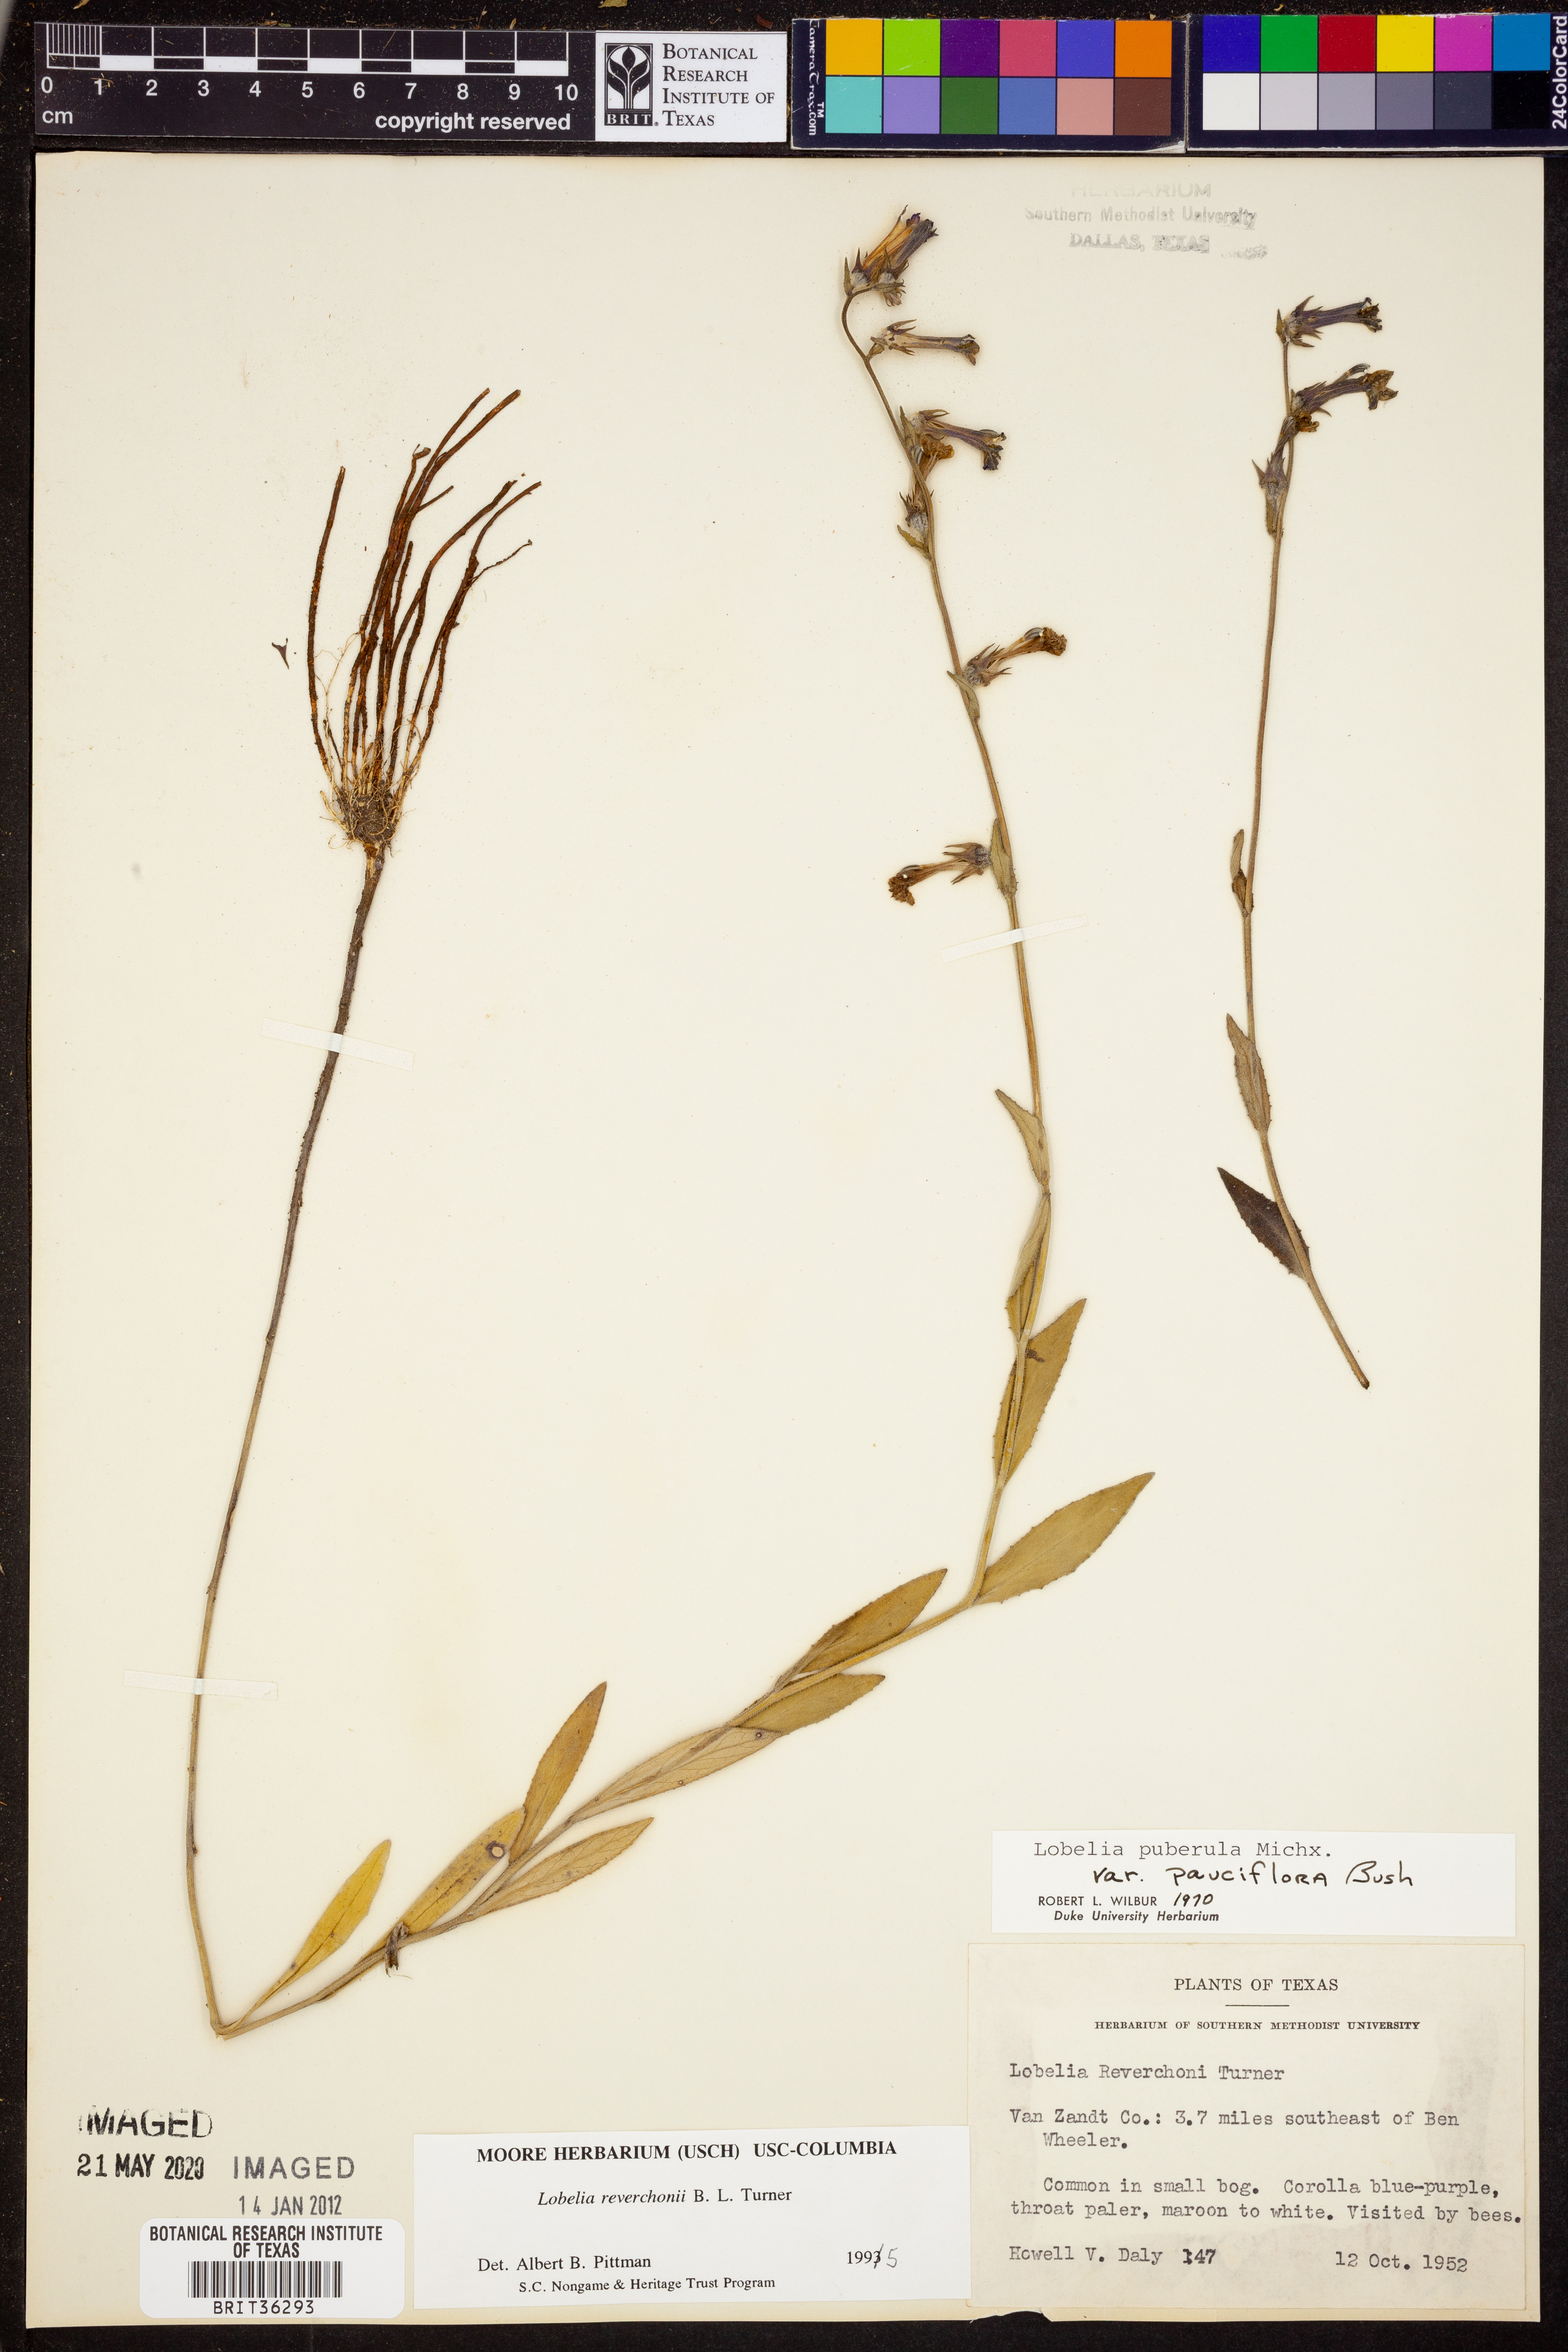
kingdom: Plantae
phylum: Tracheophyta
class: Magnoliopsida
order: Asterales
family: Campanulaceae
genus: Lobelia
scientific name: Lobelia reverchonii
